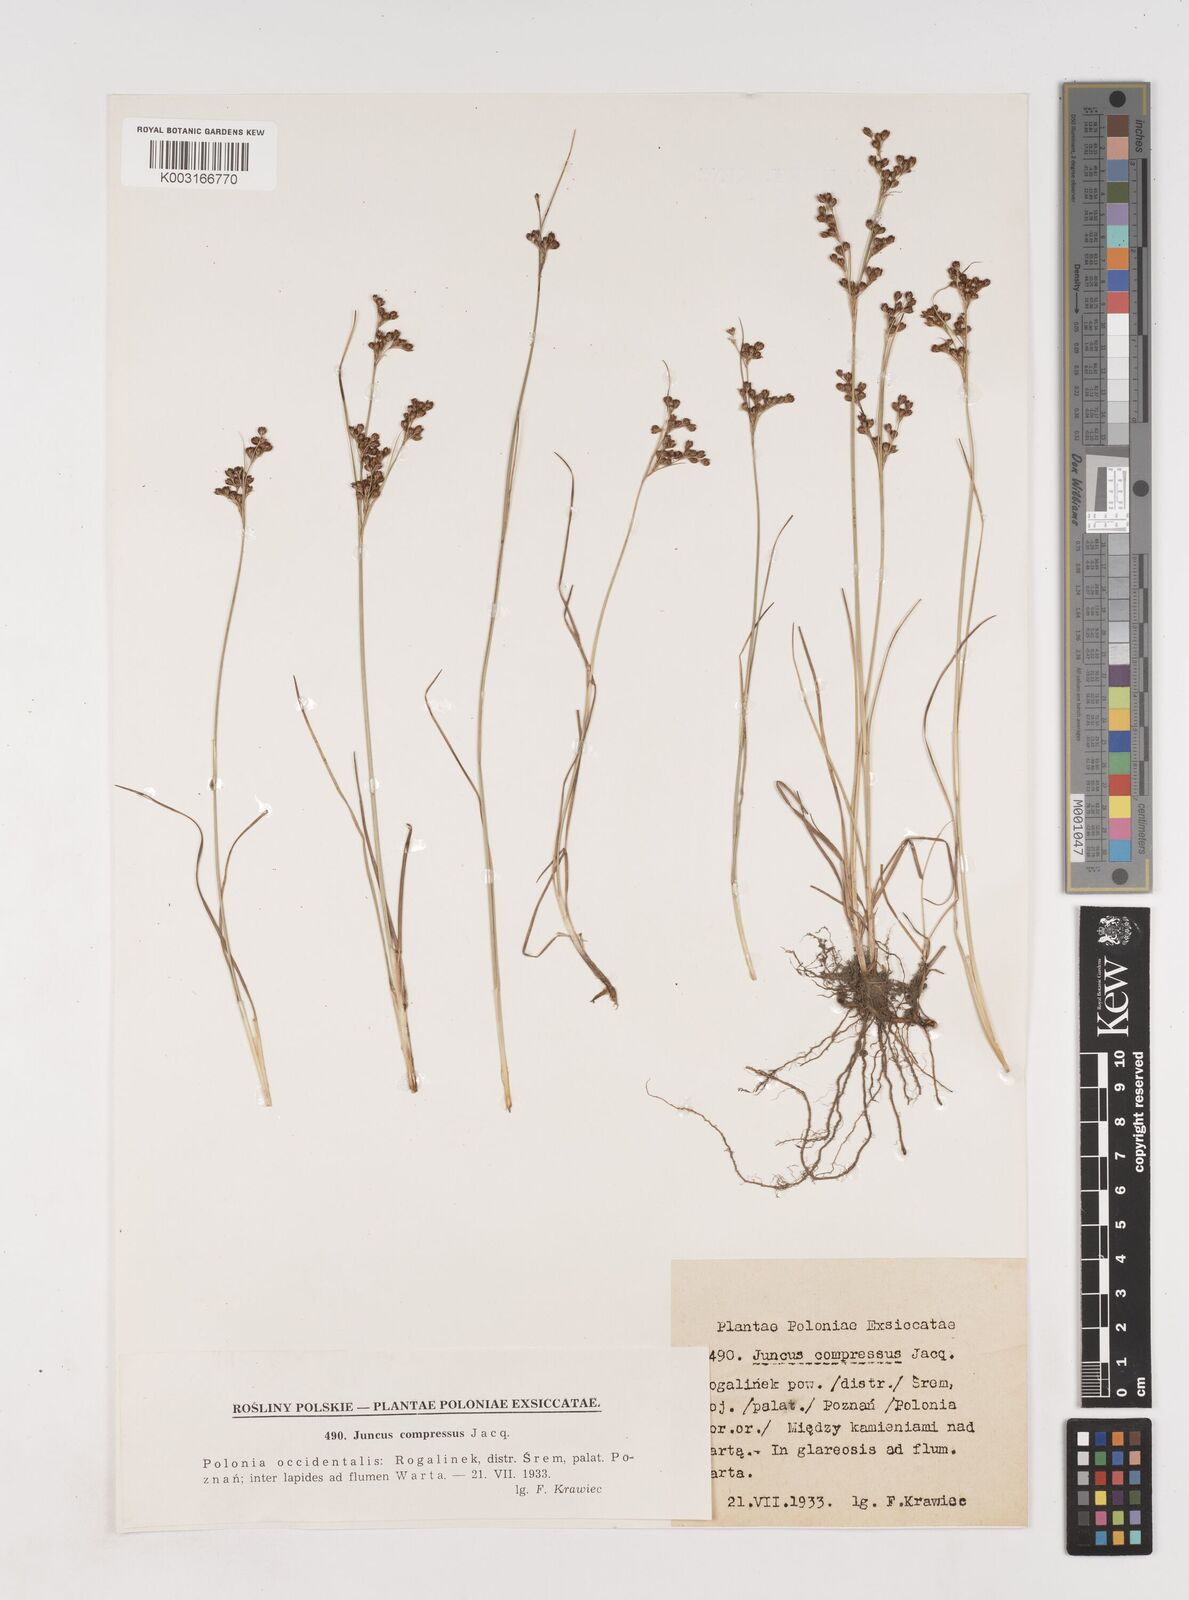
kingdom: Plantae
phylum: Tracheophyta
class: Liliopsida
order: Poales
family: Juncaceae
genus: Juncus
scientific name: Juncus
